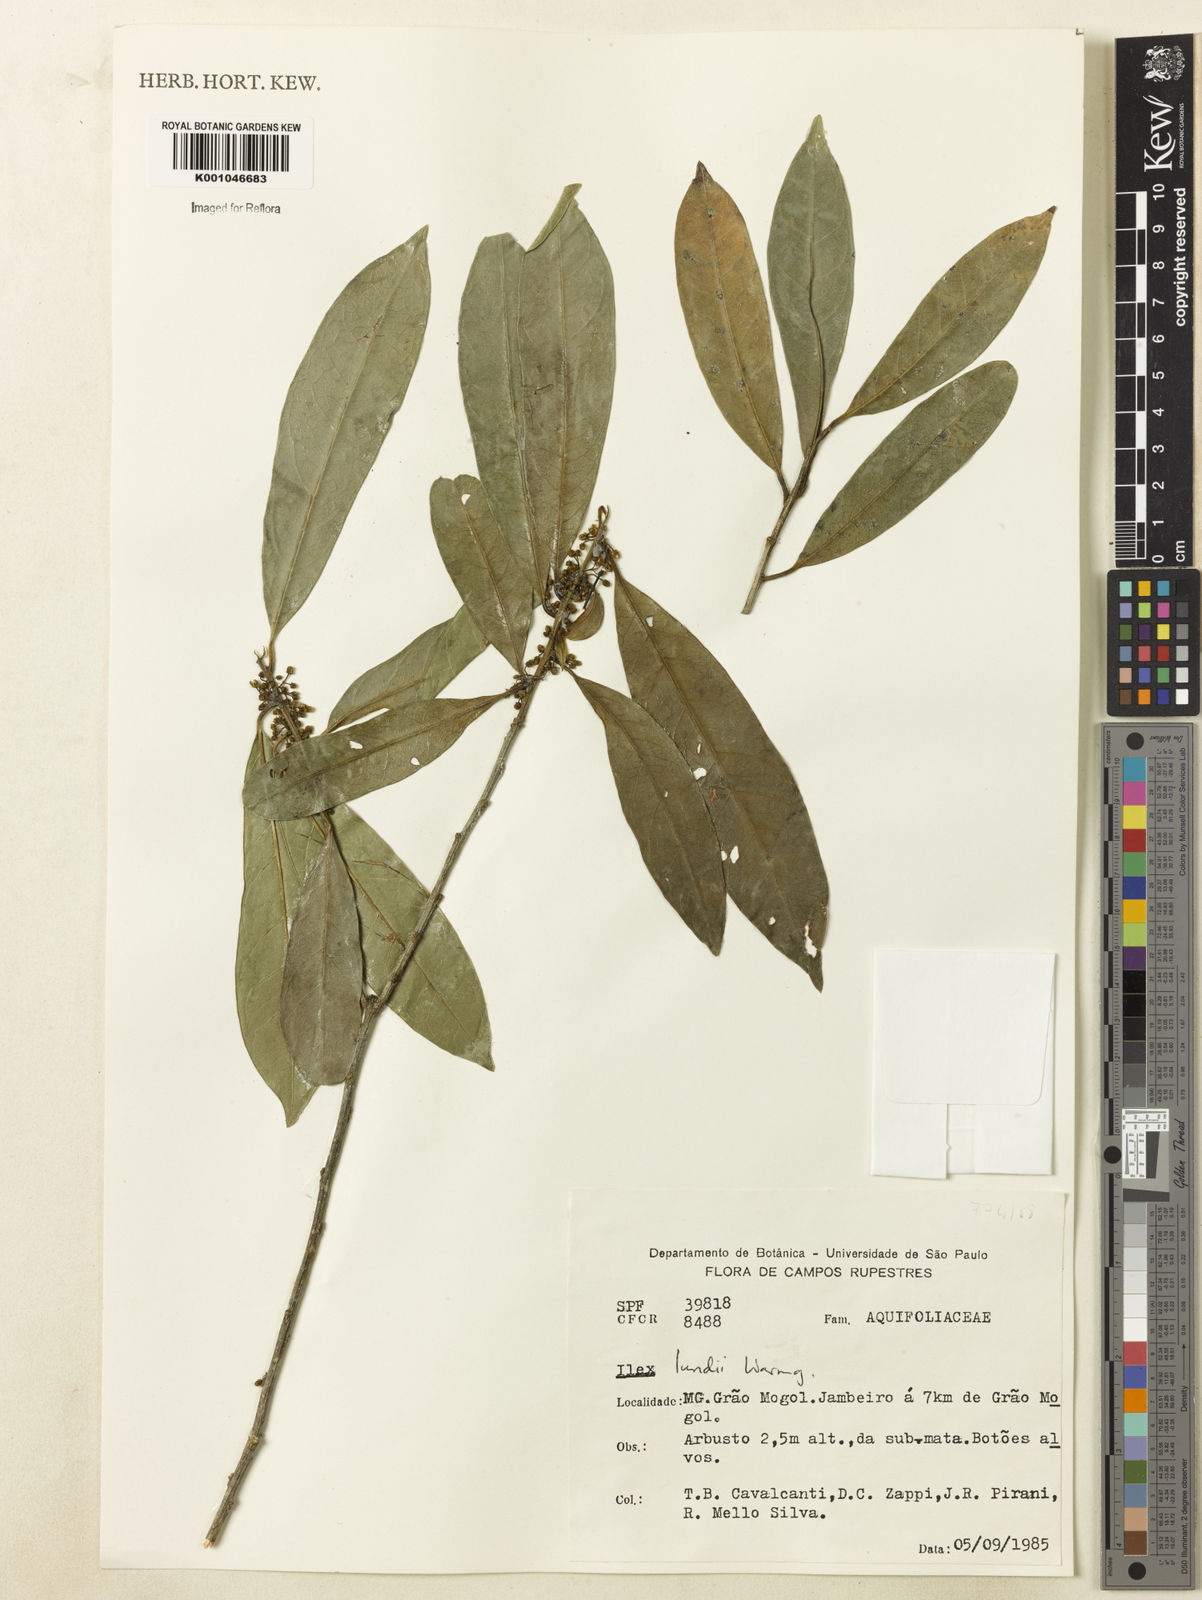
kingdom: Plantae
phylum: Tracheophyta
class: Magnoliopsida
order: Aquifoliales
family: Aquifoliaceae
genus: Ilex
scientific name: Ilex lundii
